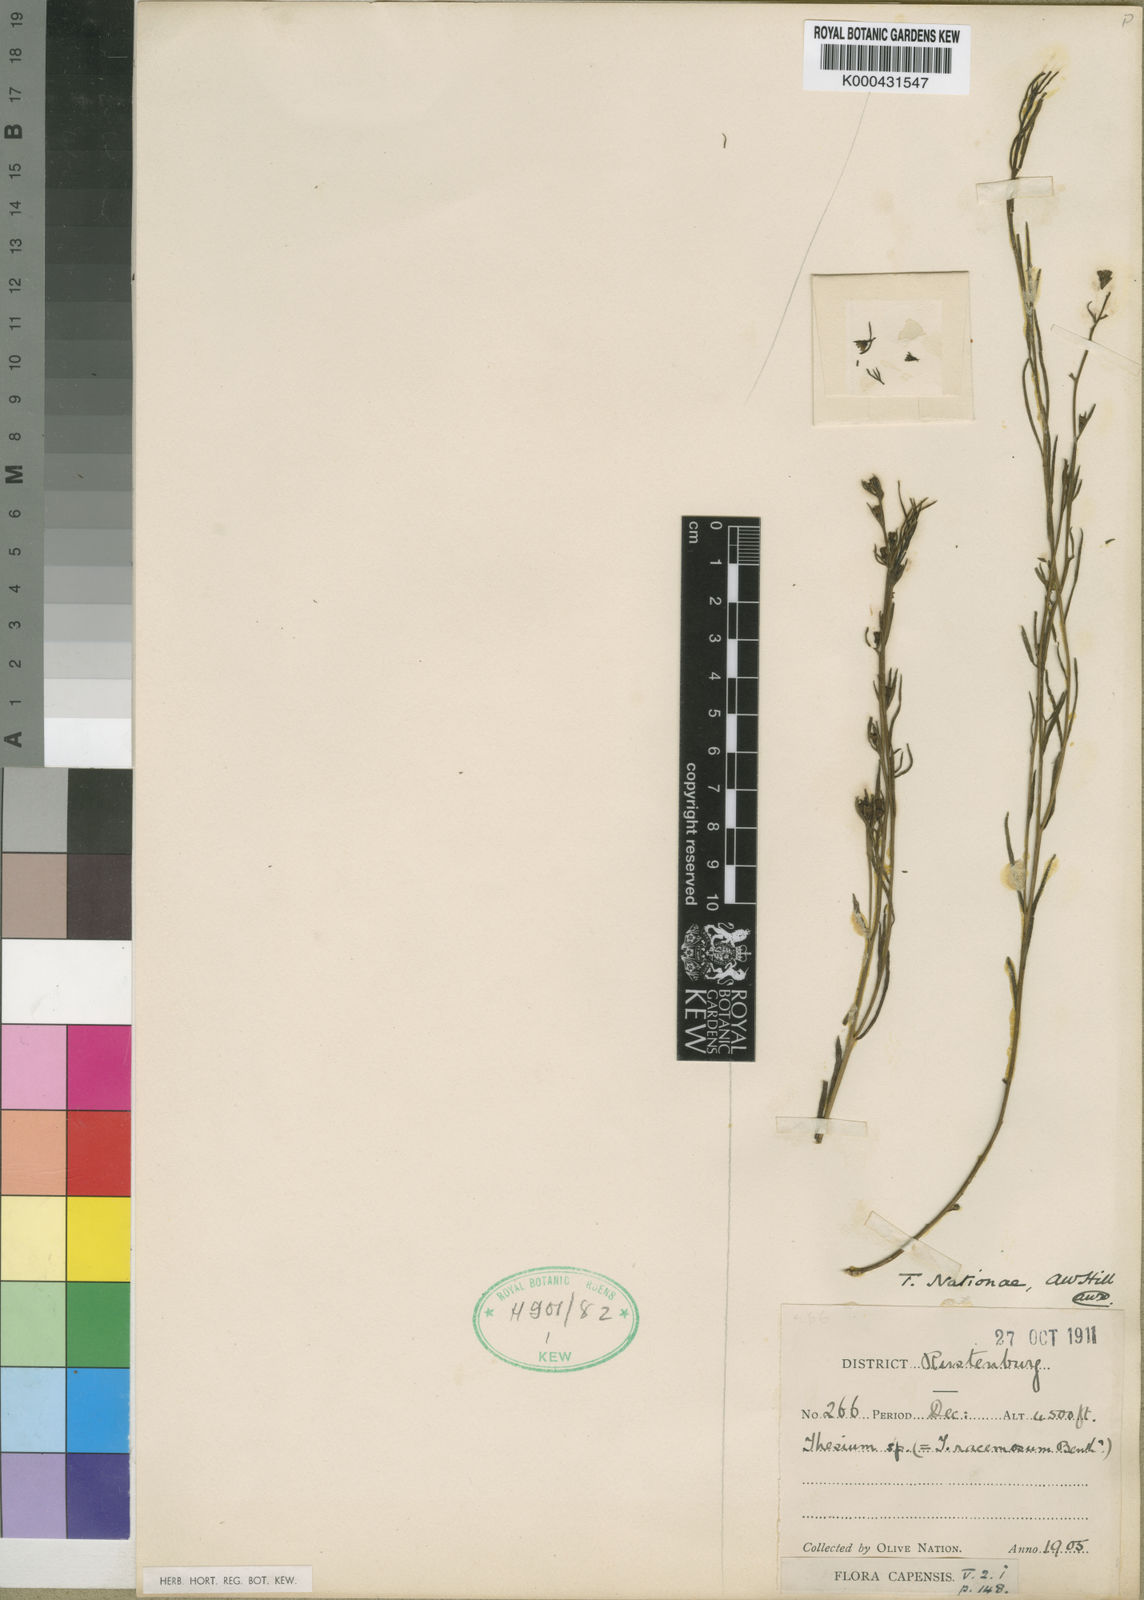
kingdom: Plantae
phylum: Tracheophyta
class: Magnoliopsida
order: Santalales
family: Thesiaceae
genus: Thesium
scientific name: Thesium nationiae
